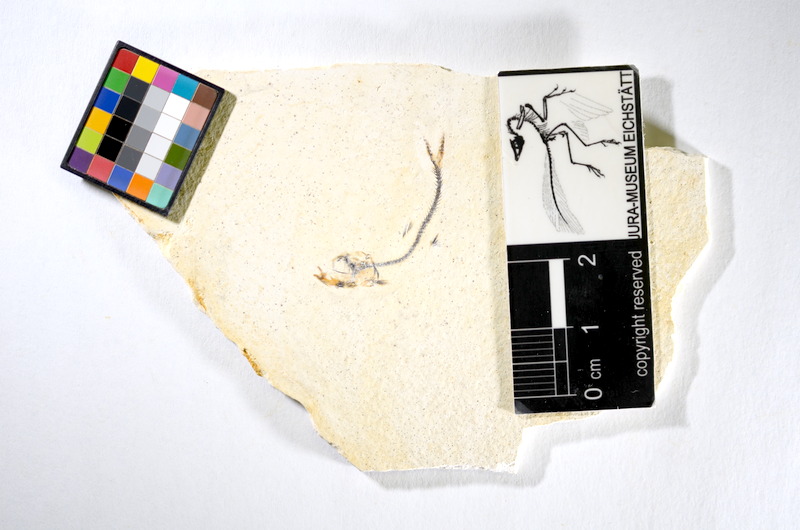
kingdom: Animalia
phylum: Chordata
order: Salmoniformes
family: Orthogonikleithridae
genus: Orthogonikleithrus
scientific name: Orthogonikleithrus hoelli
